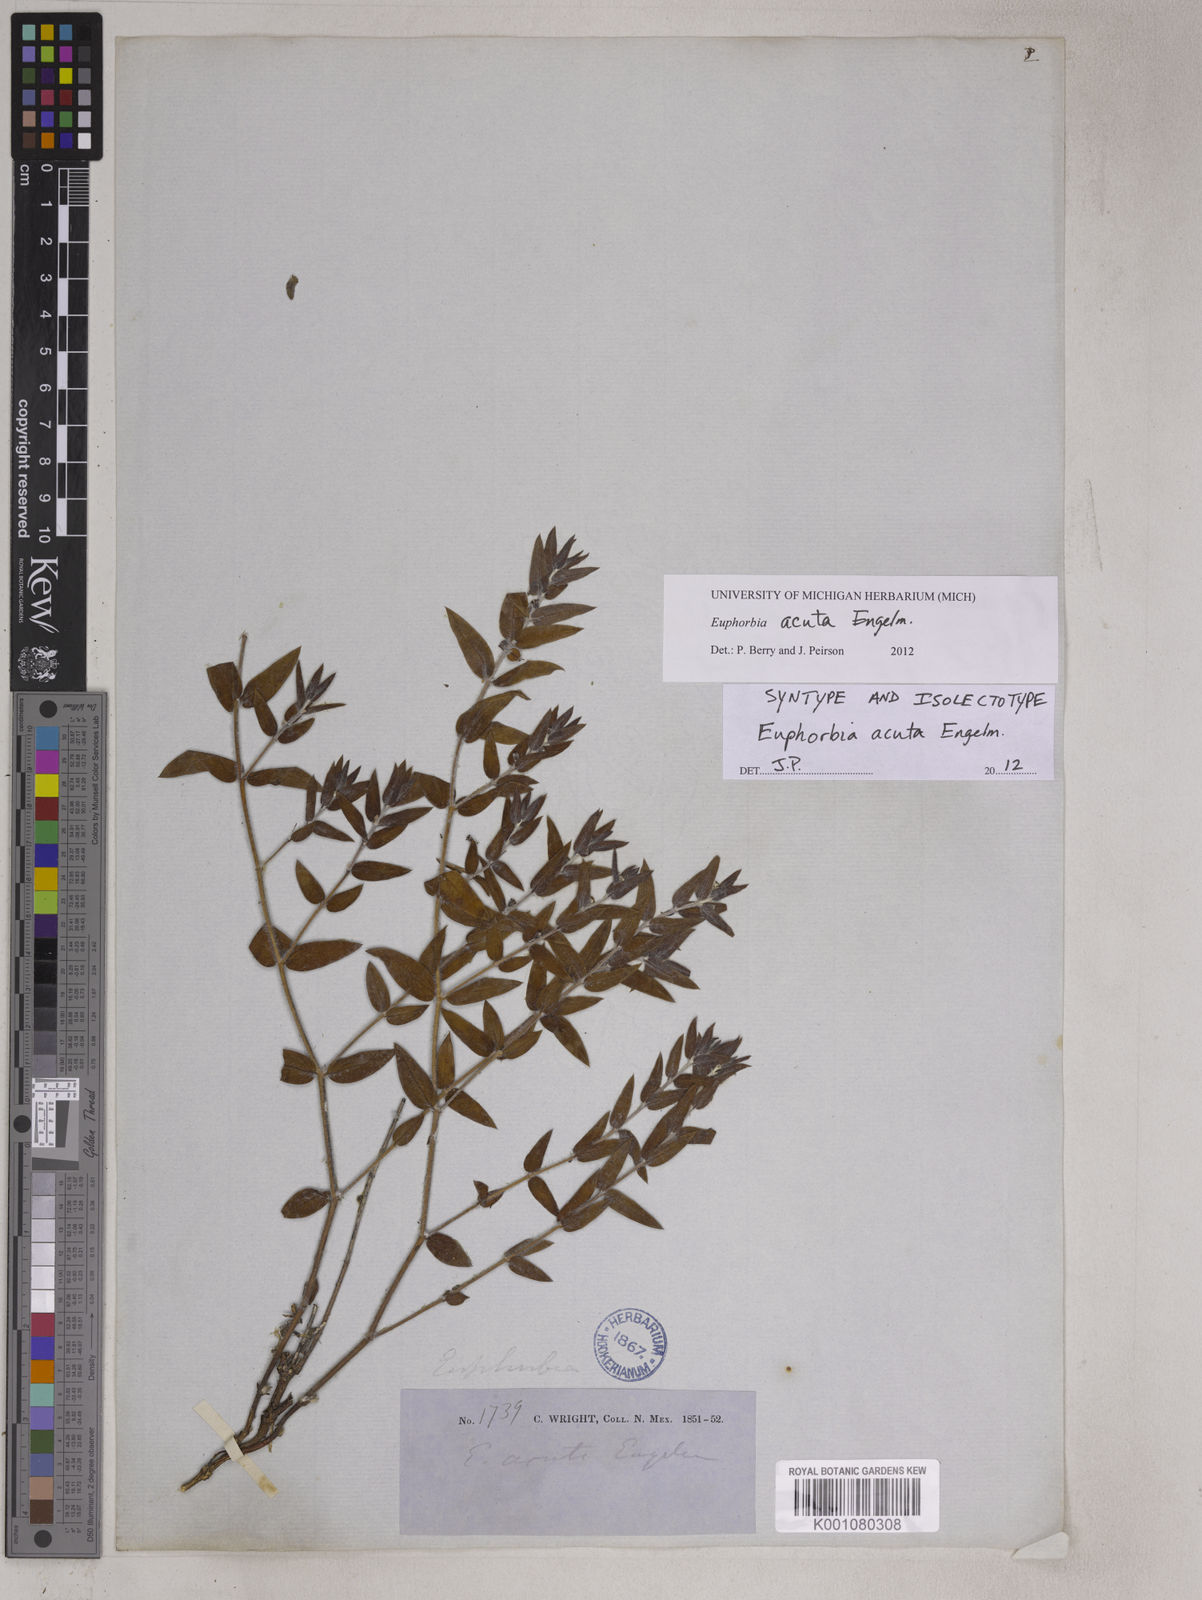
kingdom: Plantae
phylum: Tracheophyta
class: Magnoliopsida
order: Malpighiales
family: Euphorbiaceae
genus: Euphorbia
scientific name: Euphorbia acuta
